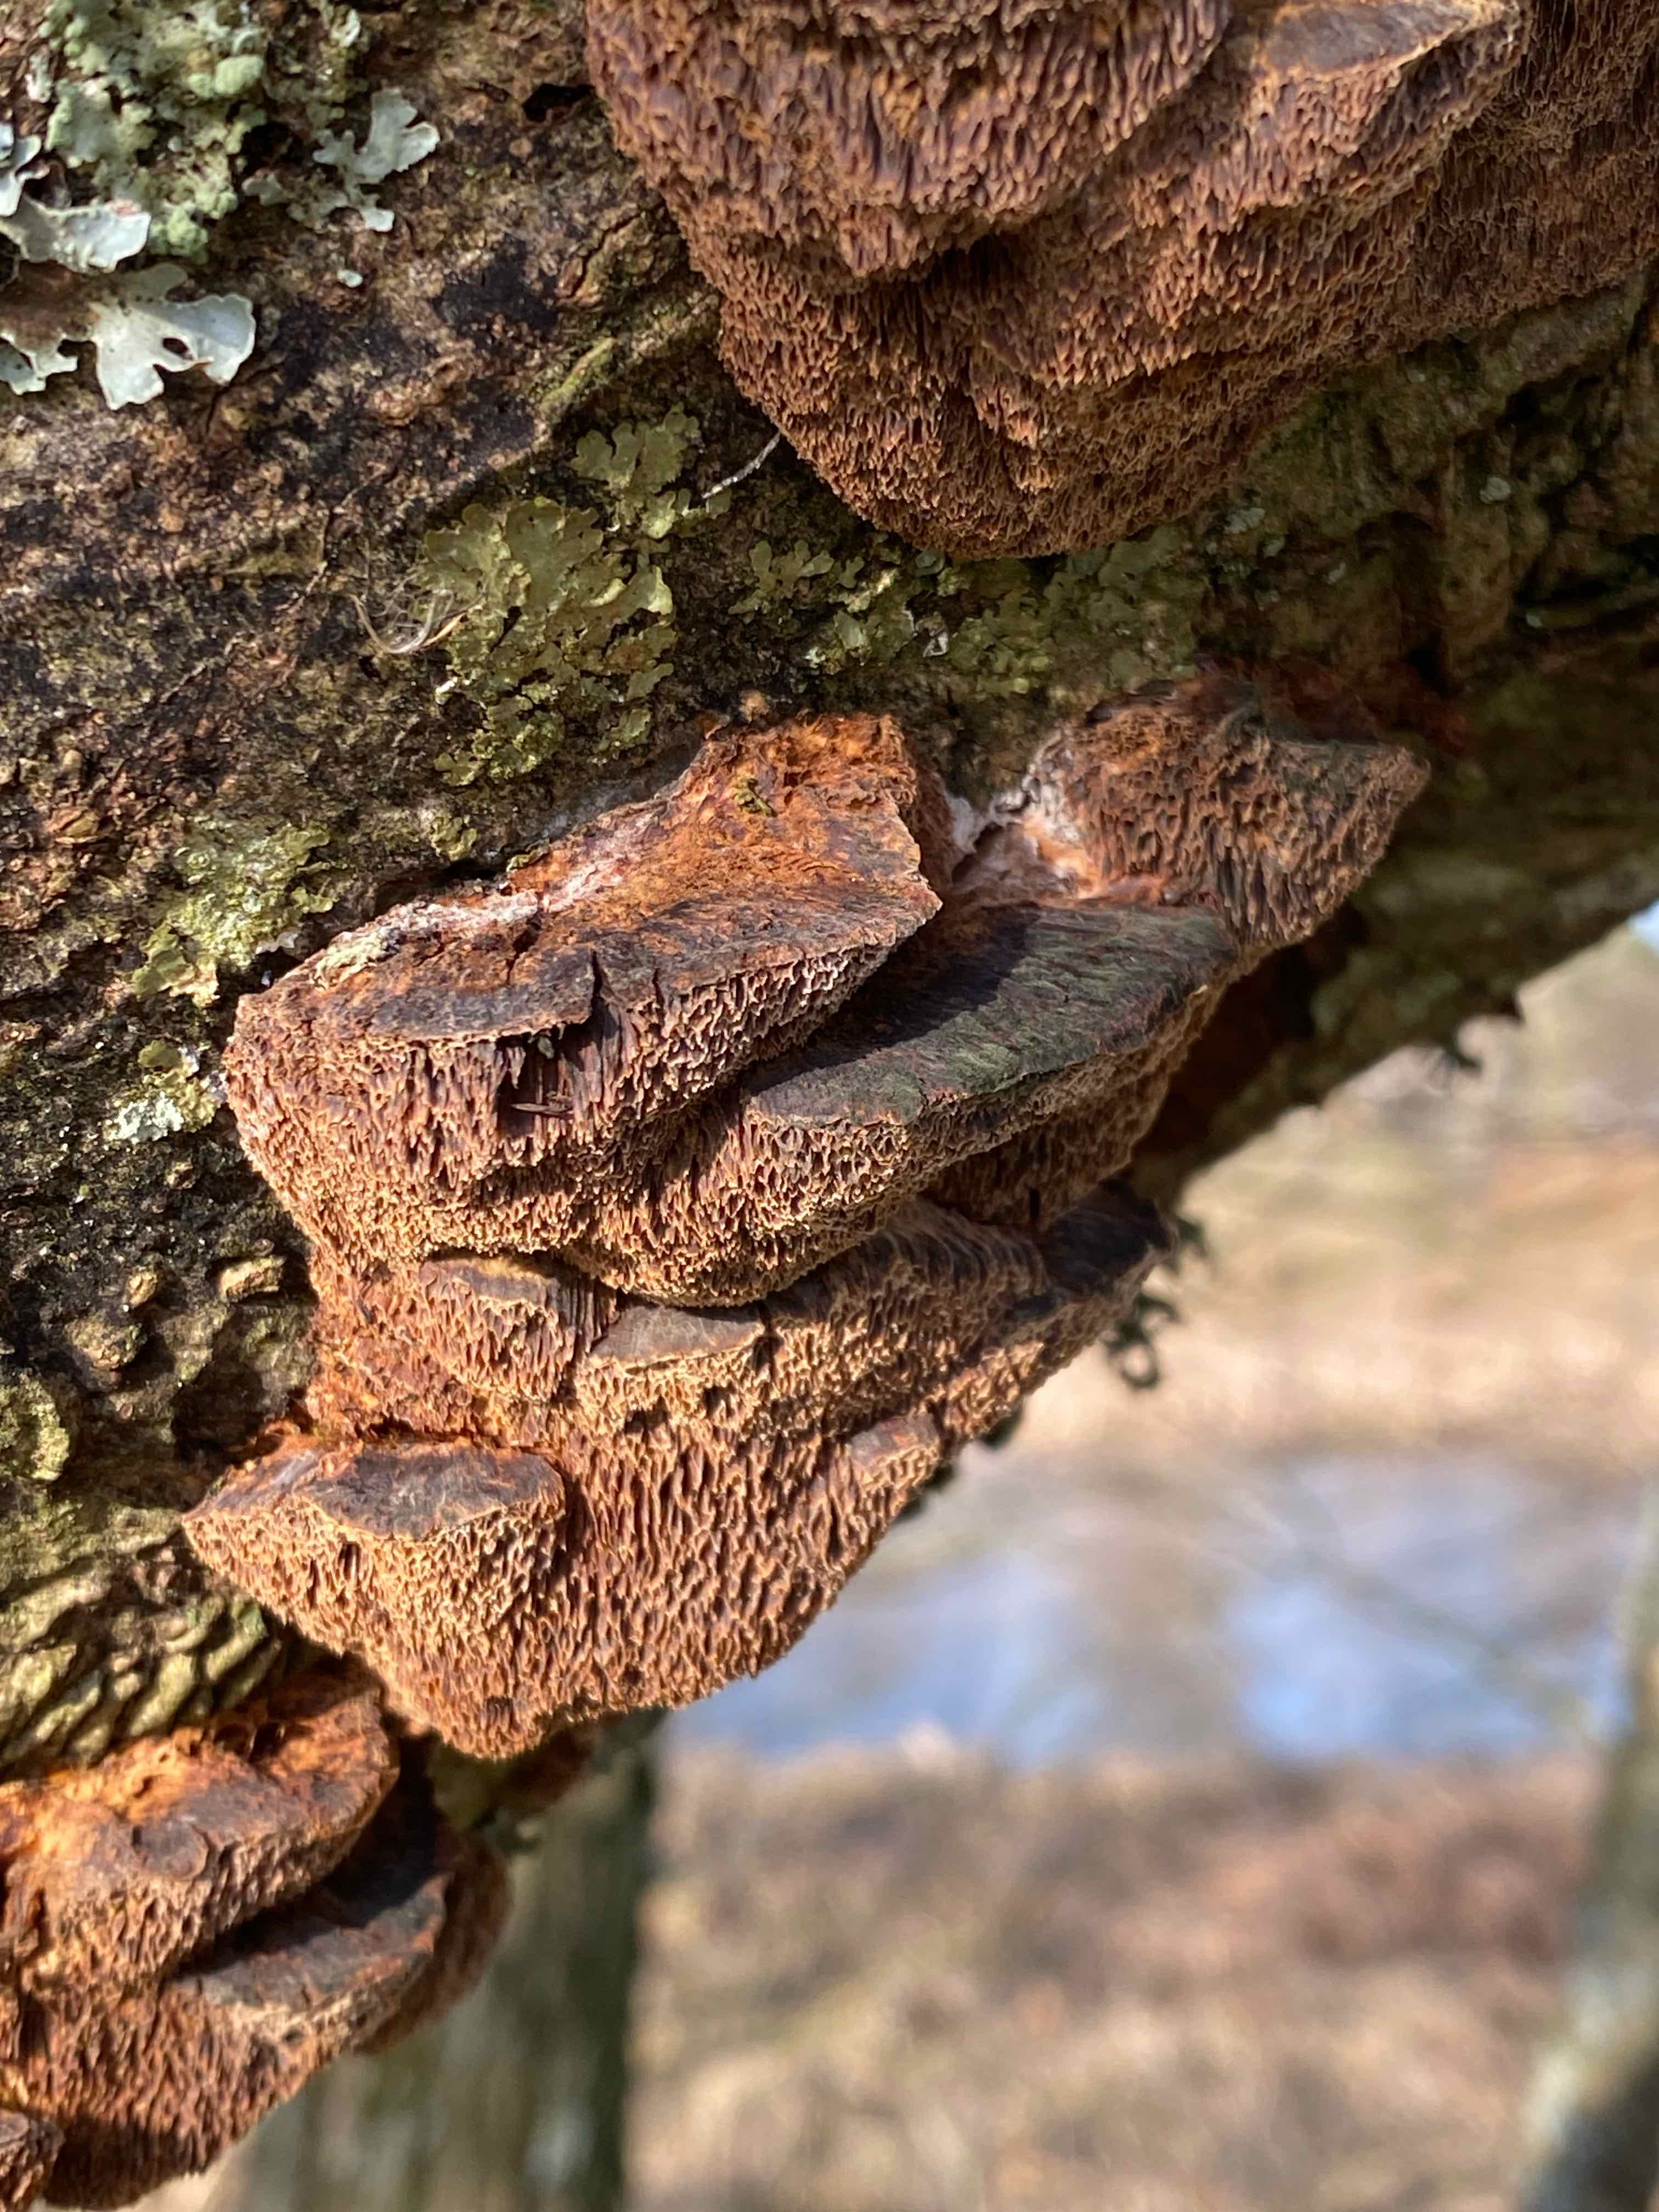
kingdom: Fungi
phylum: Basidiomycota
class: Agaricomycetes
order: Hymenochaetales
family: Hymenochaetaceae
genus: Xanthoporia
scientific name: Xanthoporia radiata
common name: elle-spejlporesvamp
